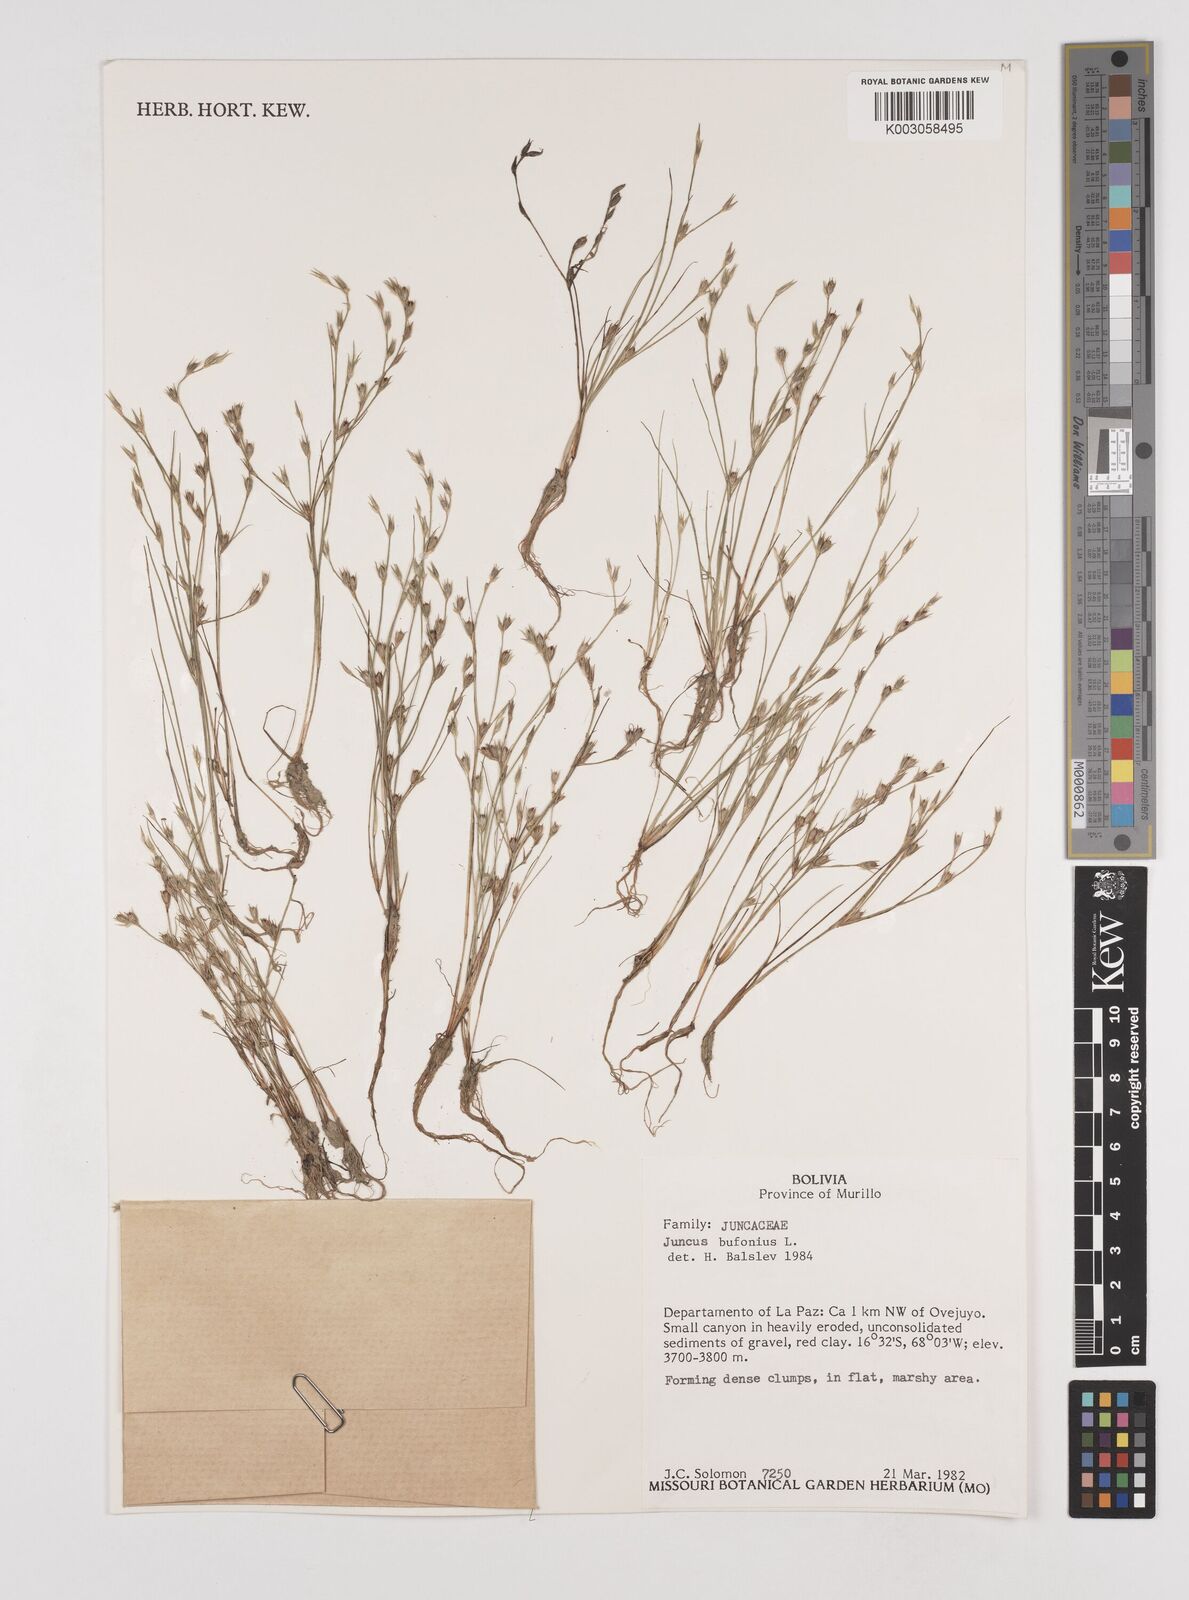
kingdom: Plantae
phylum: Tracheophyta
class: Liliopsida
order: Poales
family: Juncaceae
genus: Juncus
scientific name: Juncus bufonius
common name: Toad rush
